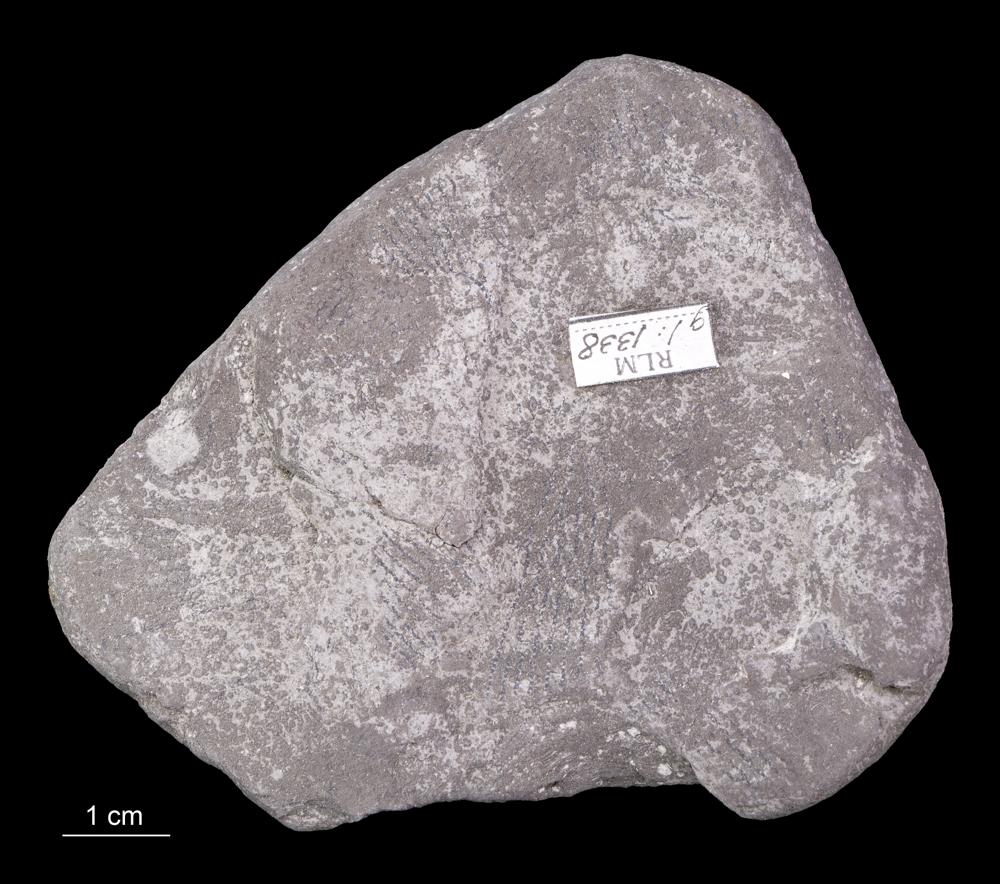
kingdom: Animalia
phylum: Hemichordata
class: Pterobranchia
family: Anisograptidae
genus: Rhabdinopora
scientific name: Rhabdinopora Gorgonia flabelliformis
